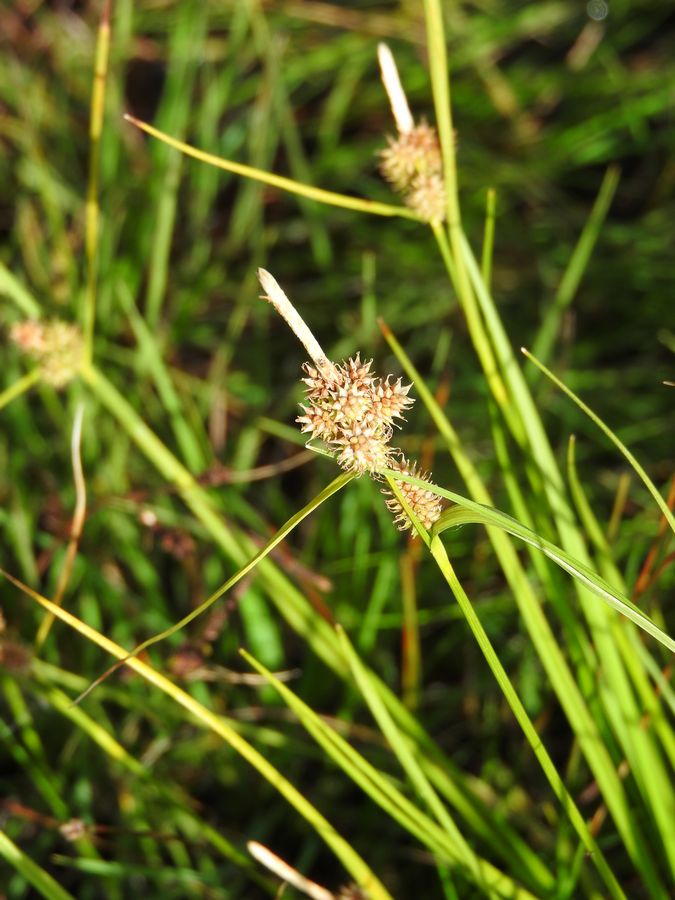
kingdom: Plantae
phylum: Tracheophyta
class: Liliopsida
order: Poales
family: Cyperaceae
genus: Carex
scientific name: Carex oederi
